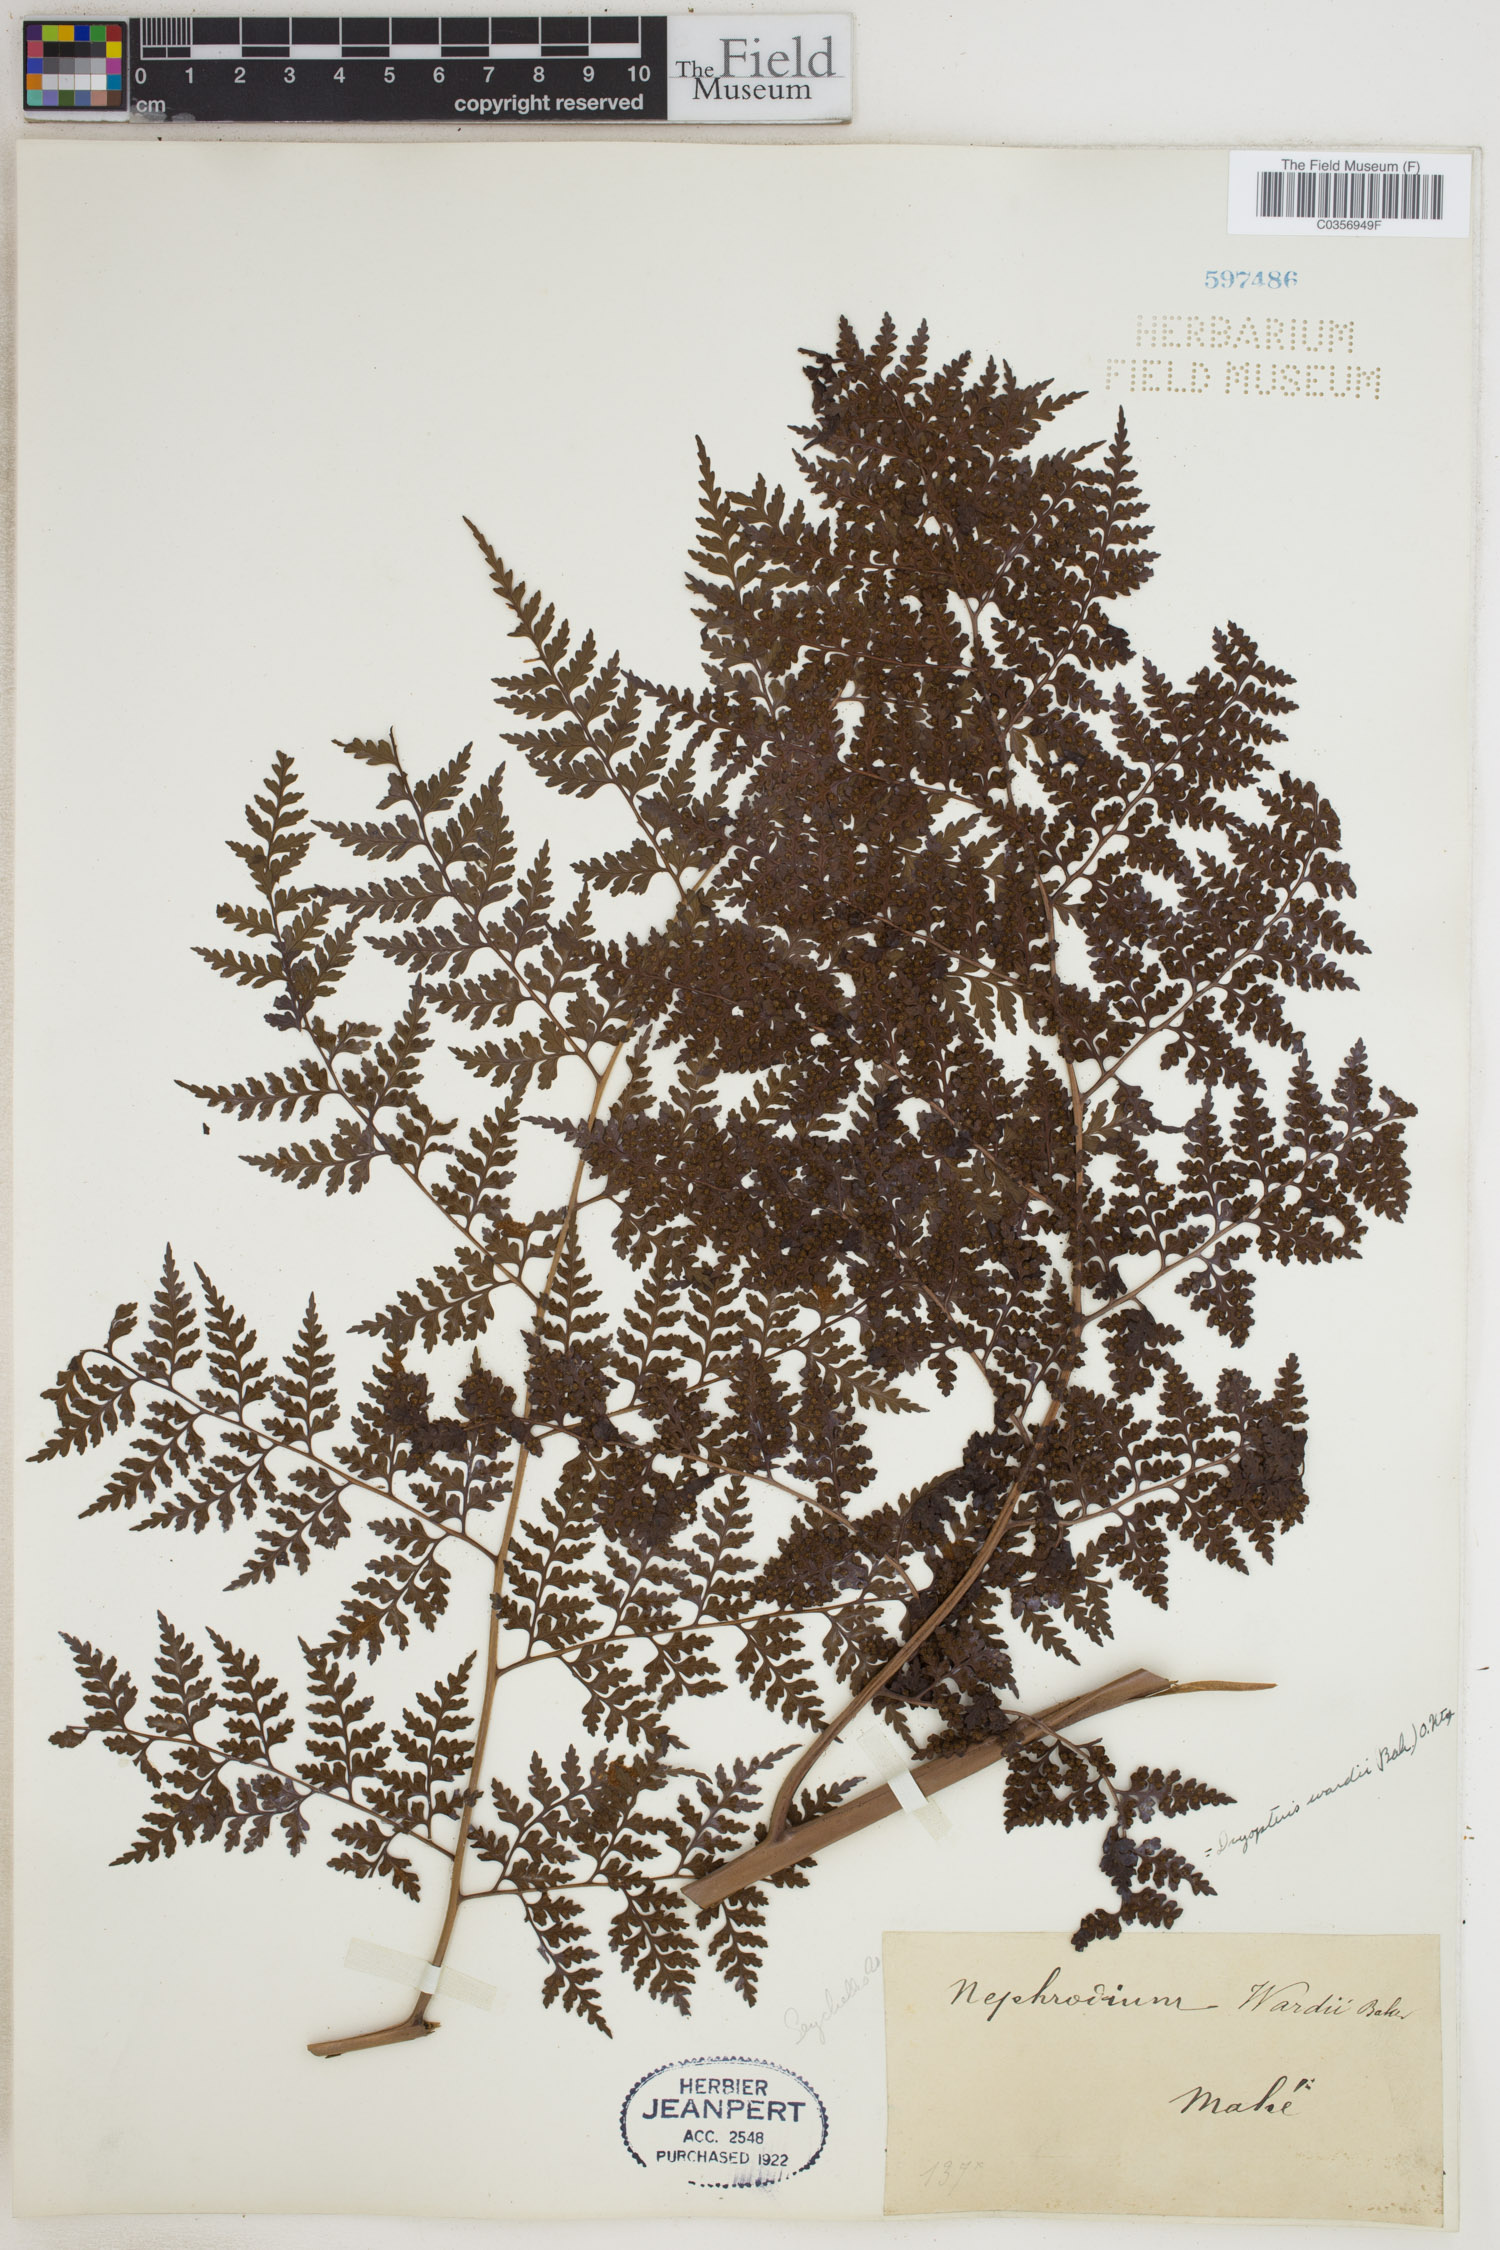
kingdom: Plantae
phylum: Tracheophyta
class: Polypodiopsida
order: Polypodiales
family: Dryopteridaceae
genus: Dryopteris
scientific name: Dryopteris wardii
